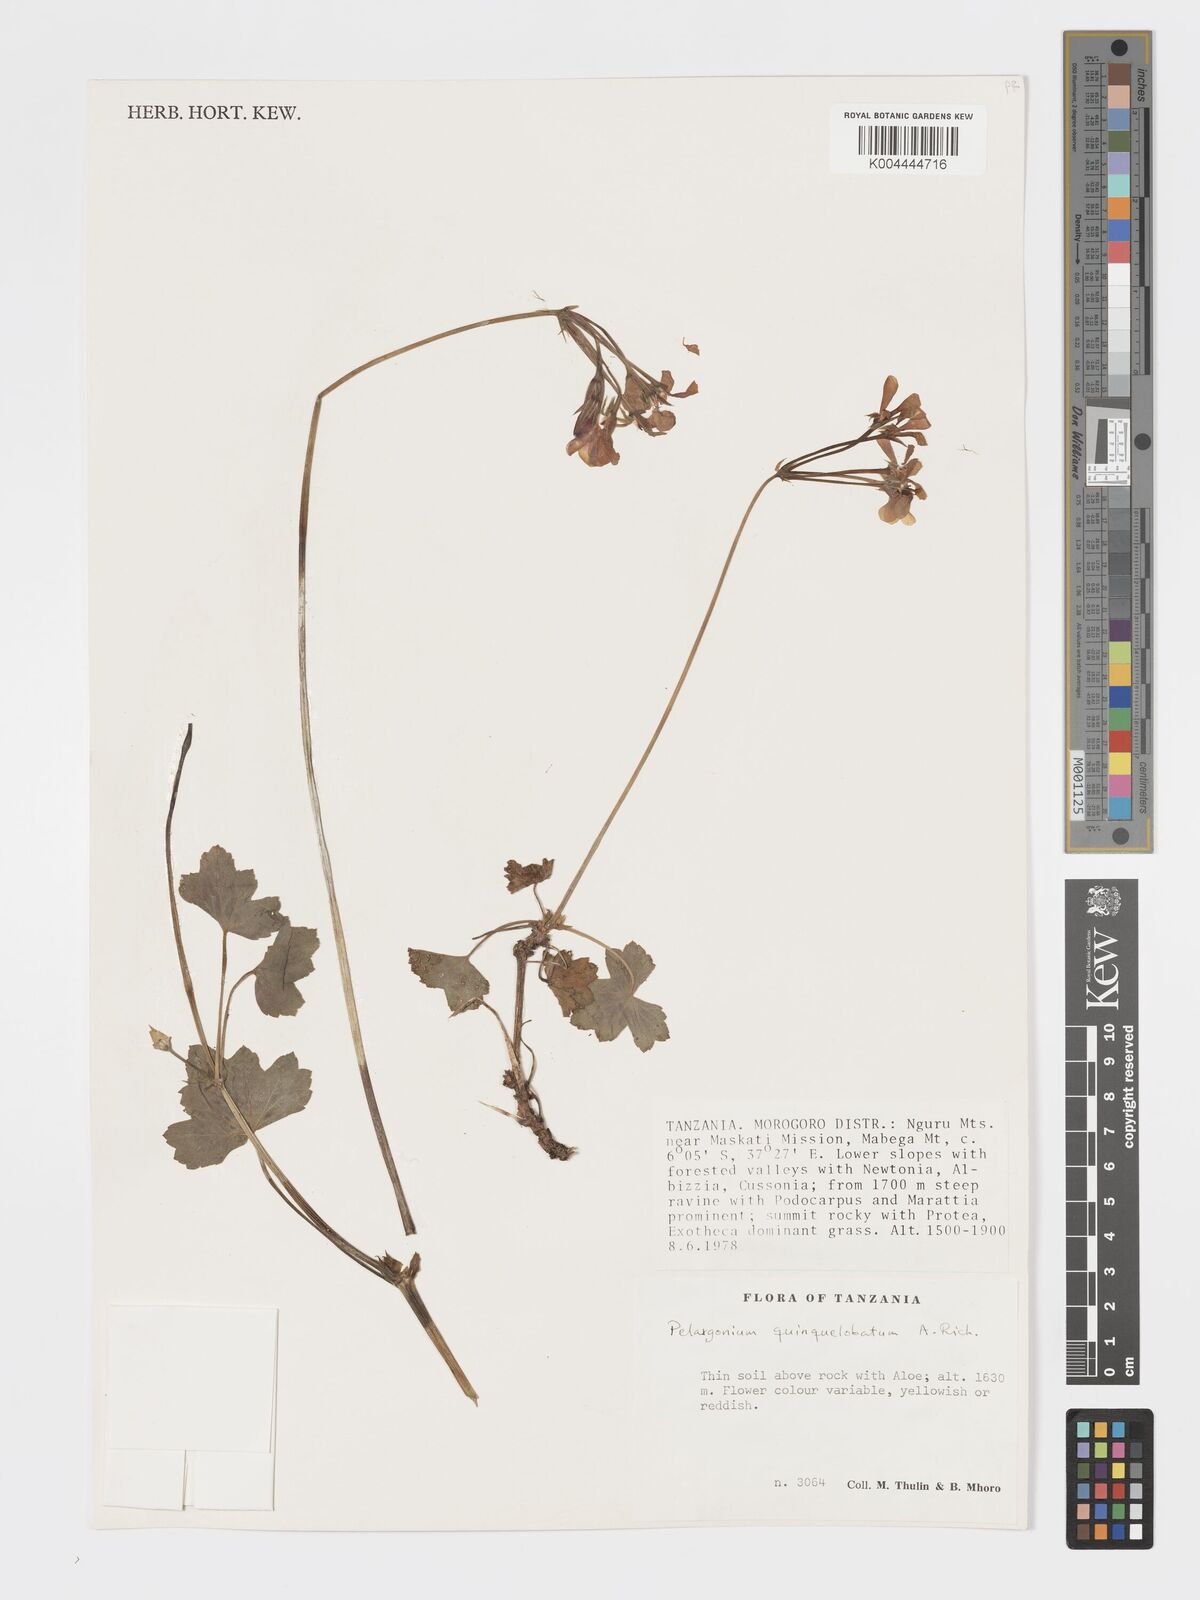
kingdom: Plantae
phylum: Tracheophyta
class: Magnoliopsida
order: Geraniales
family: Geraniaceae
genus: Pelargonium
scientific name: Pelargonium quinquelobatum
